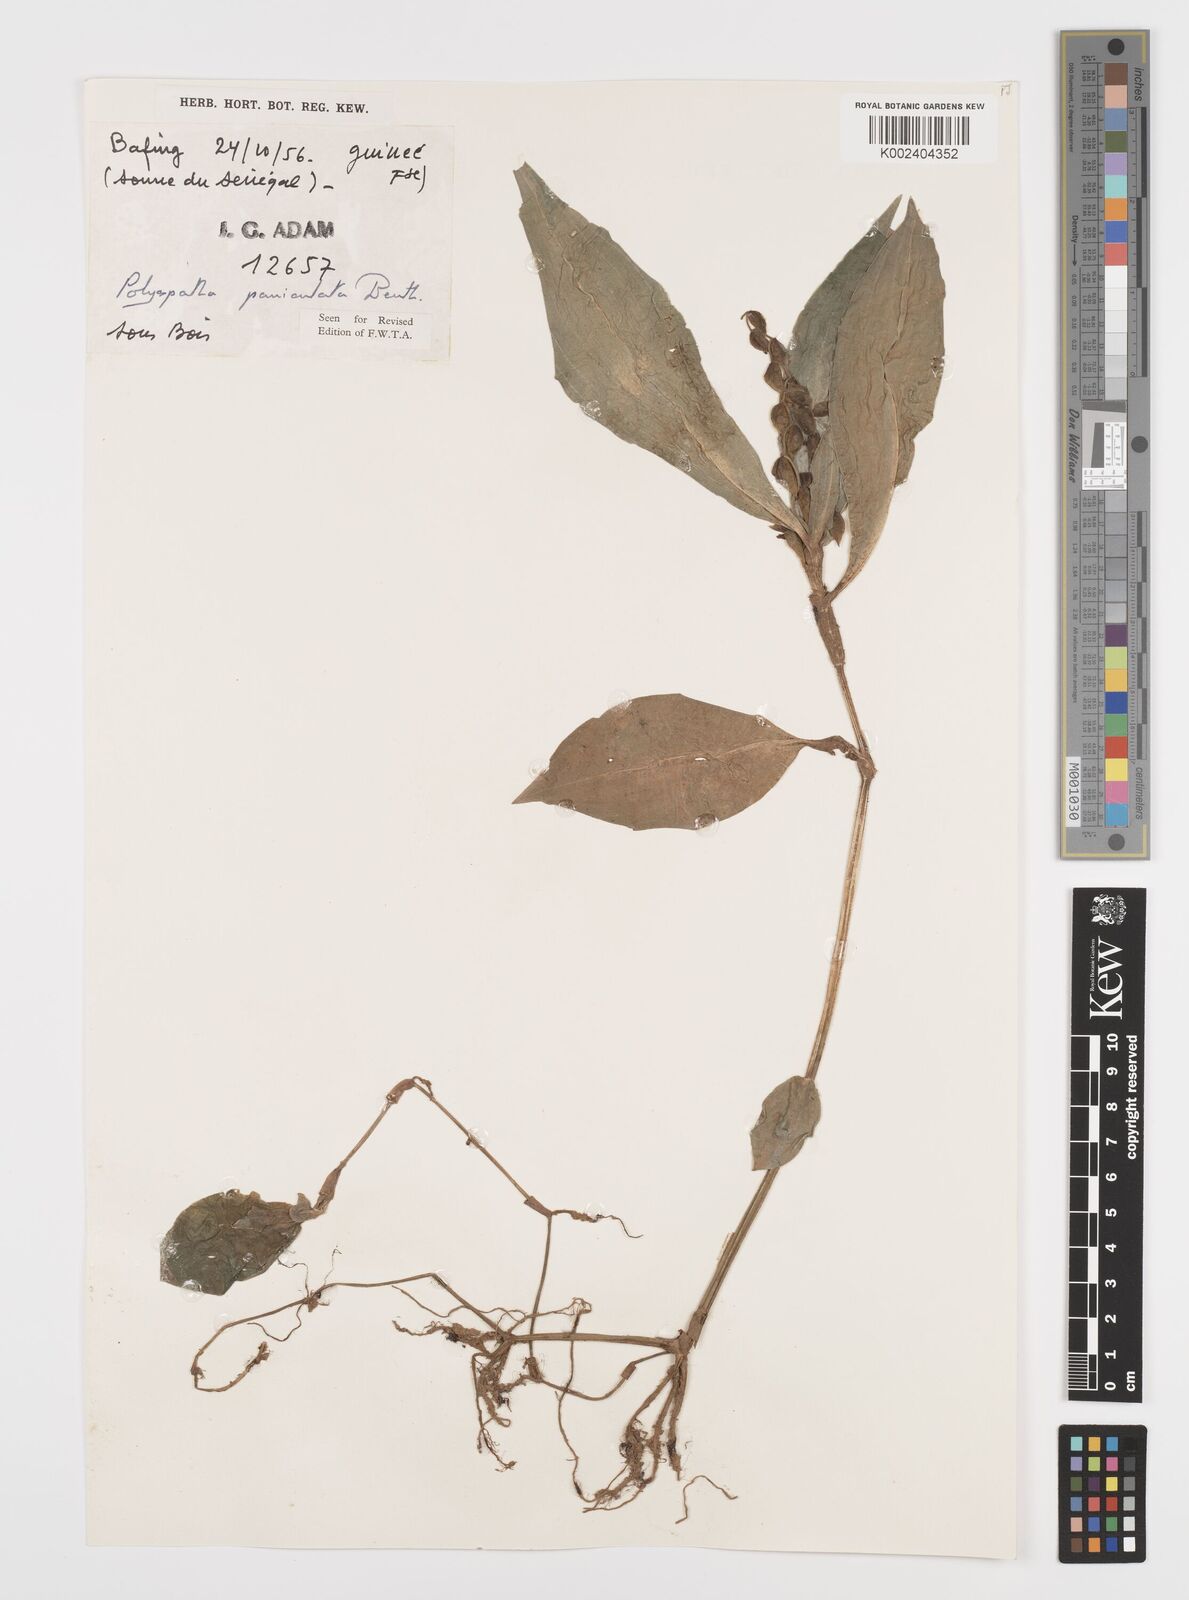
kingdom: Plantae
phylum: Tracheophyta
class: Liliopsida
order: Commelinales
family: Commelinaceae
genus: Polyspatha
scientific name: Polyspatha paniculata
